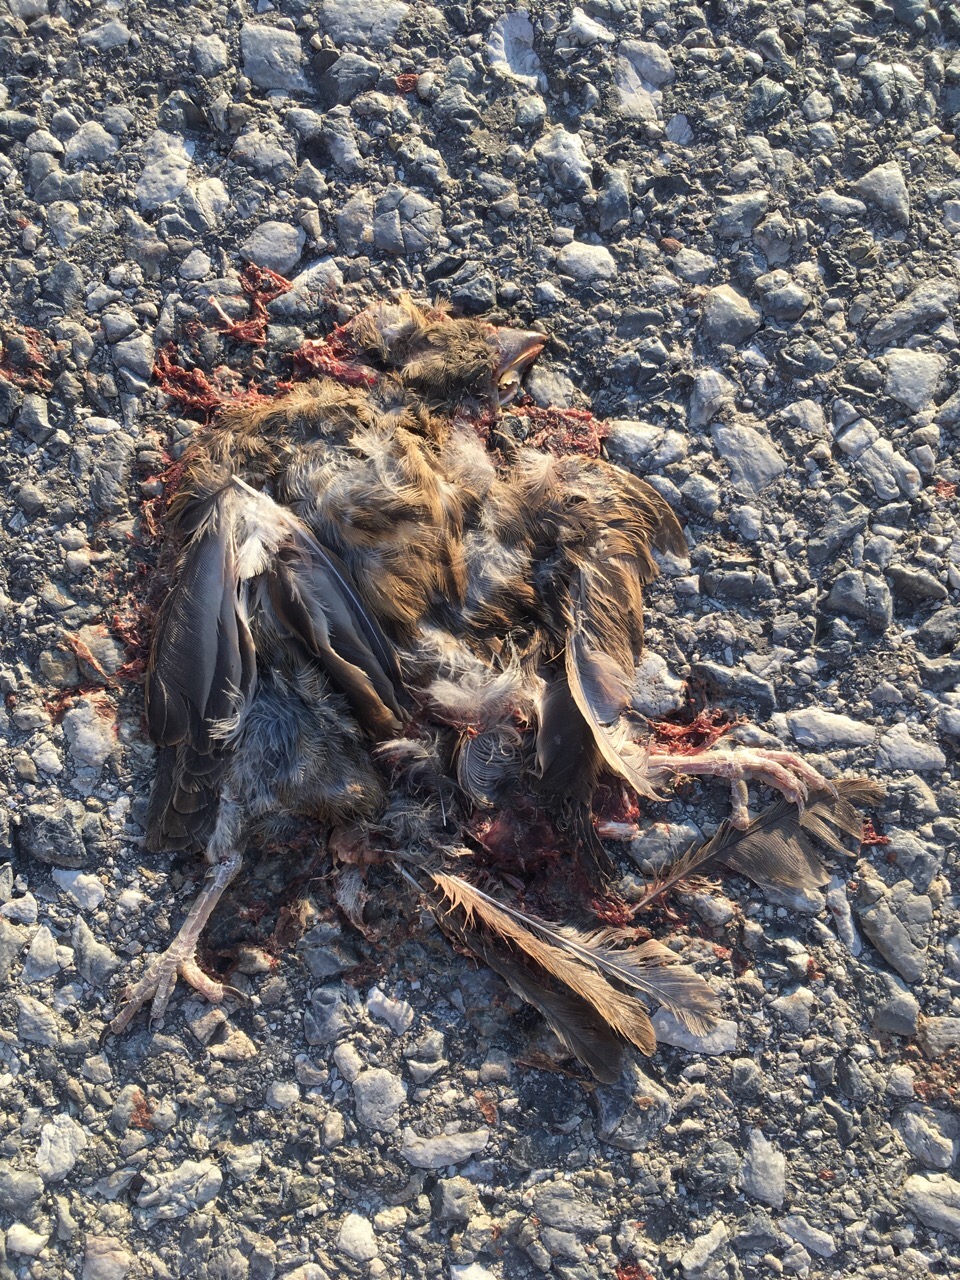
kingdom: Animalia
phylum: Chordata
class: Aves
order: Passeriformes
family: Passeridae
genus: Passer
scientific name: Passer montanus
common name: Eurasian tree sparrow
